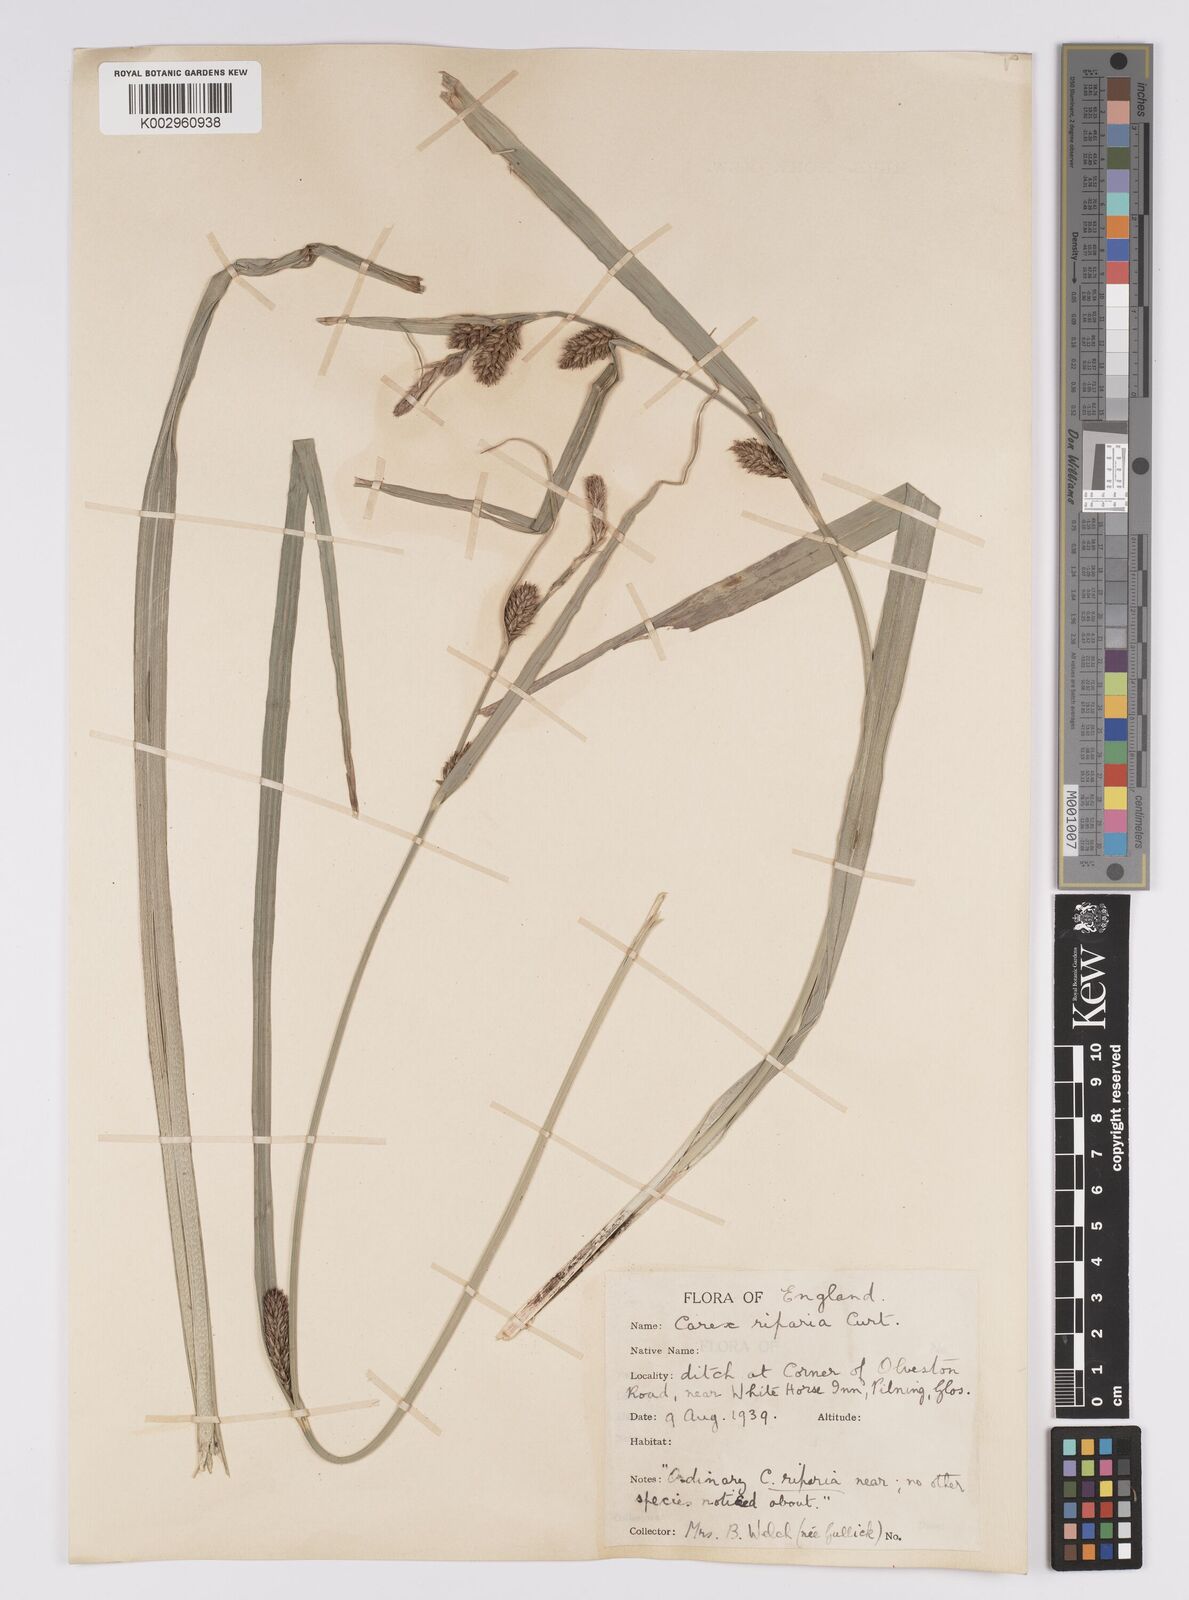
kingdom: Plantae
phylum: Tracheophyta
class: Liliopsida
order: Poales
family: Cyperaceae
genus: Carex
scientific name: Carex riparia
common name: Greater pond-sedge
